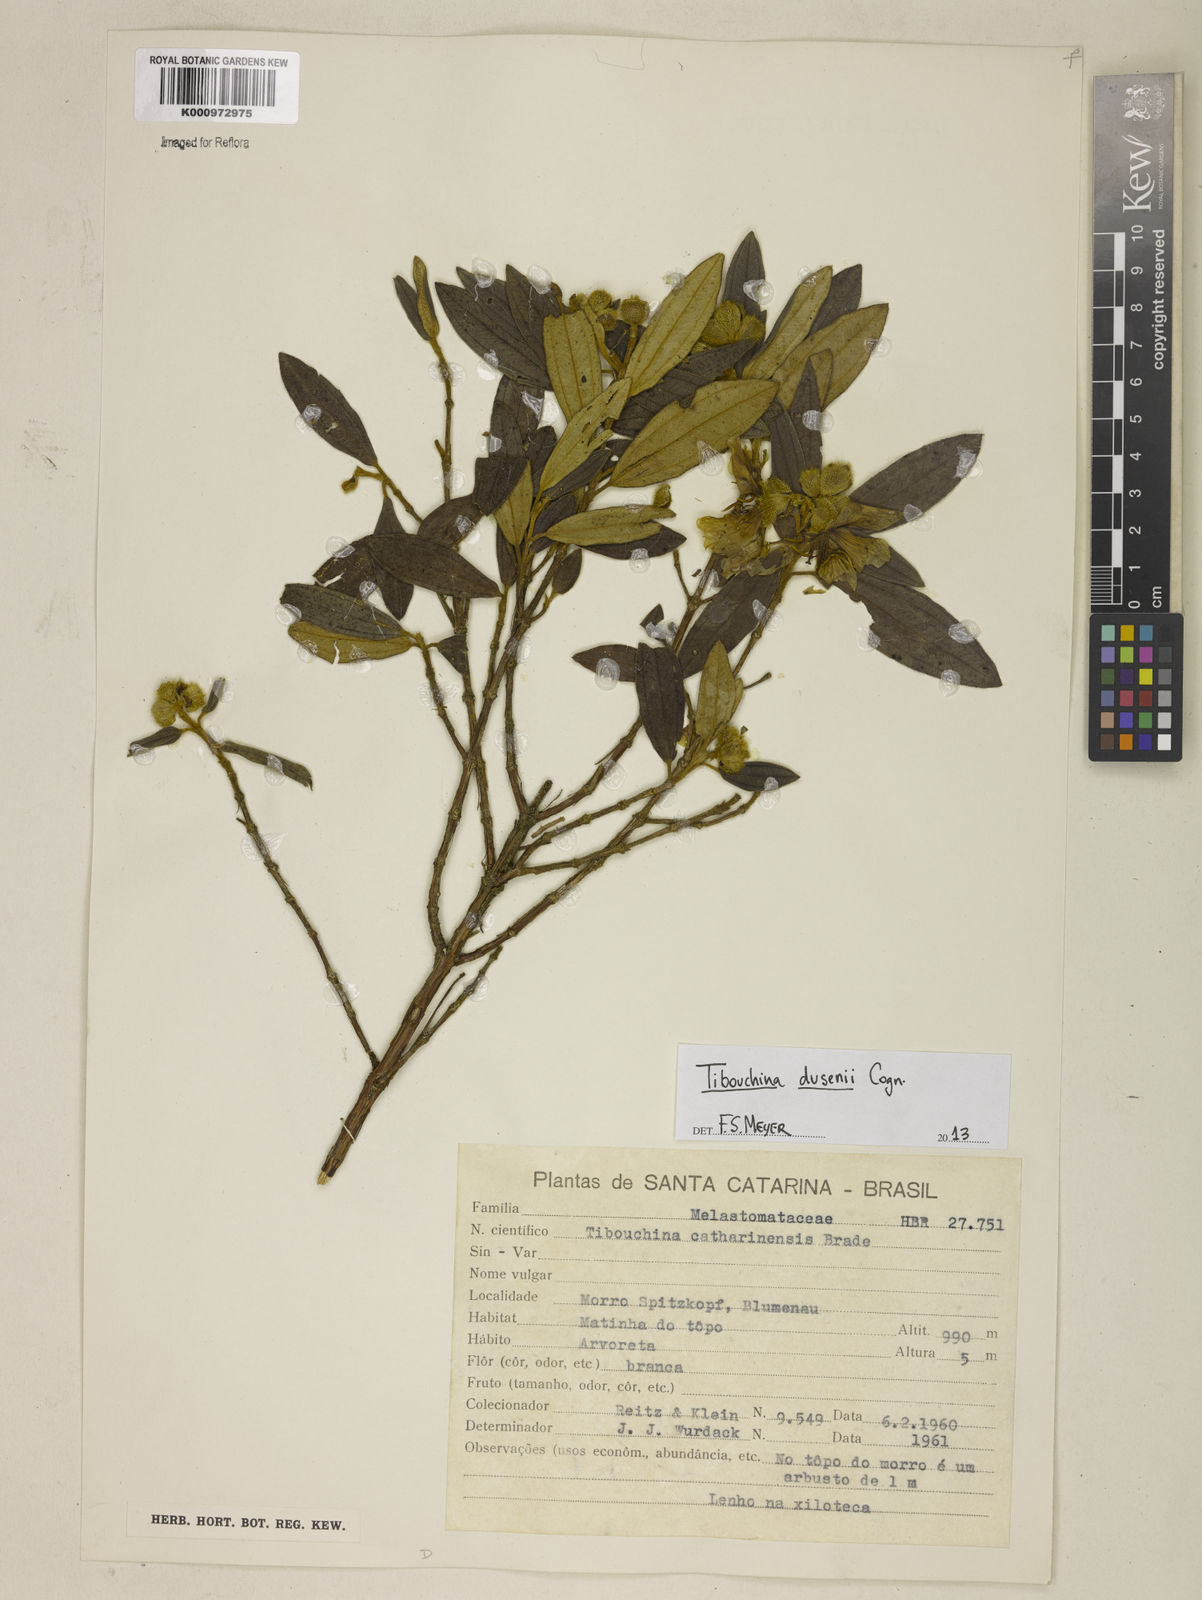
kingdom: Plantae
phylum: Tracheophyta
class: Magnoliopsida
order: Myrtales
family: Melastomataceae
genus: Tibouchina
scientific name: Tibouchina
